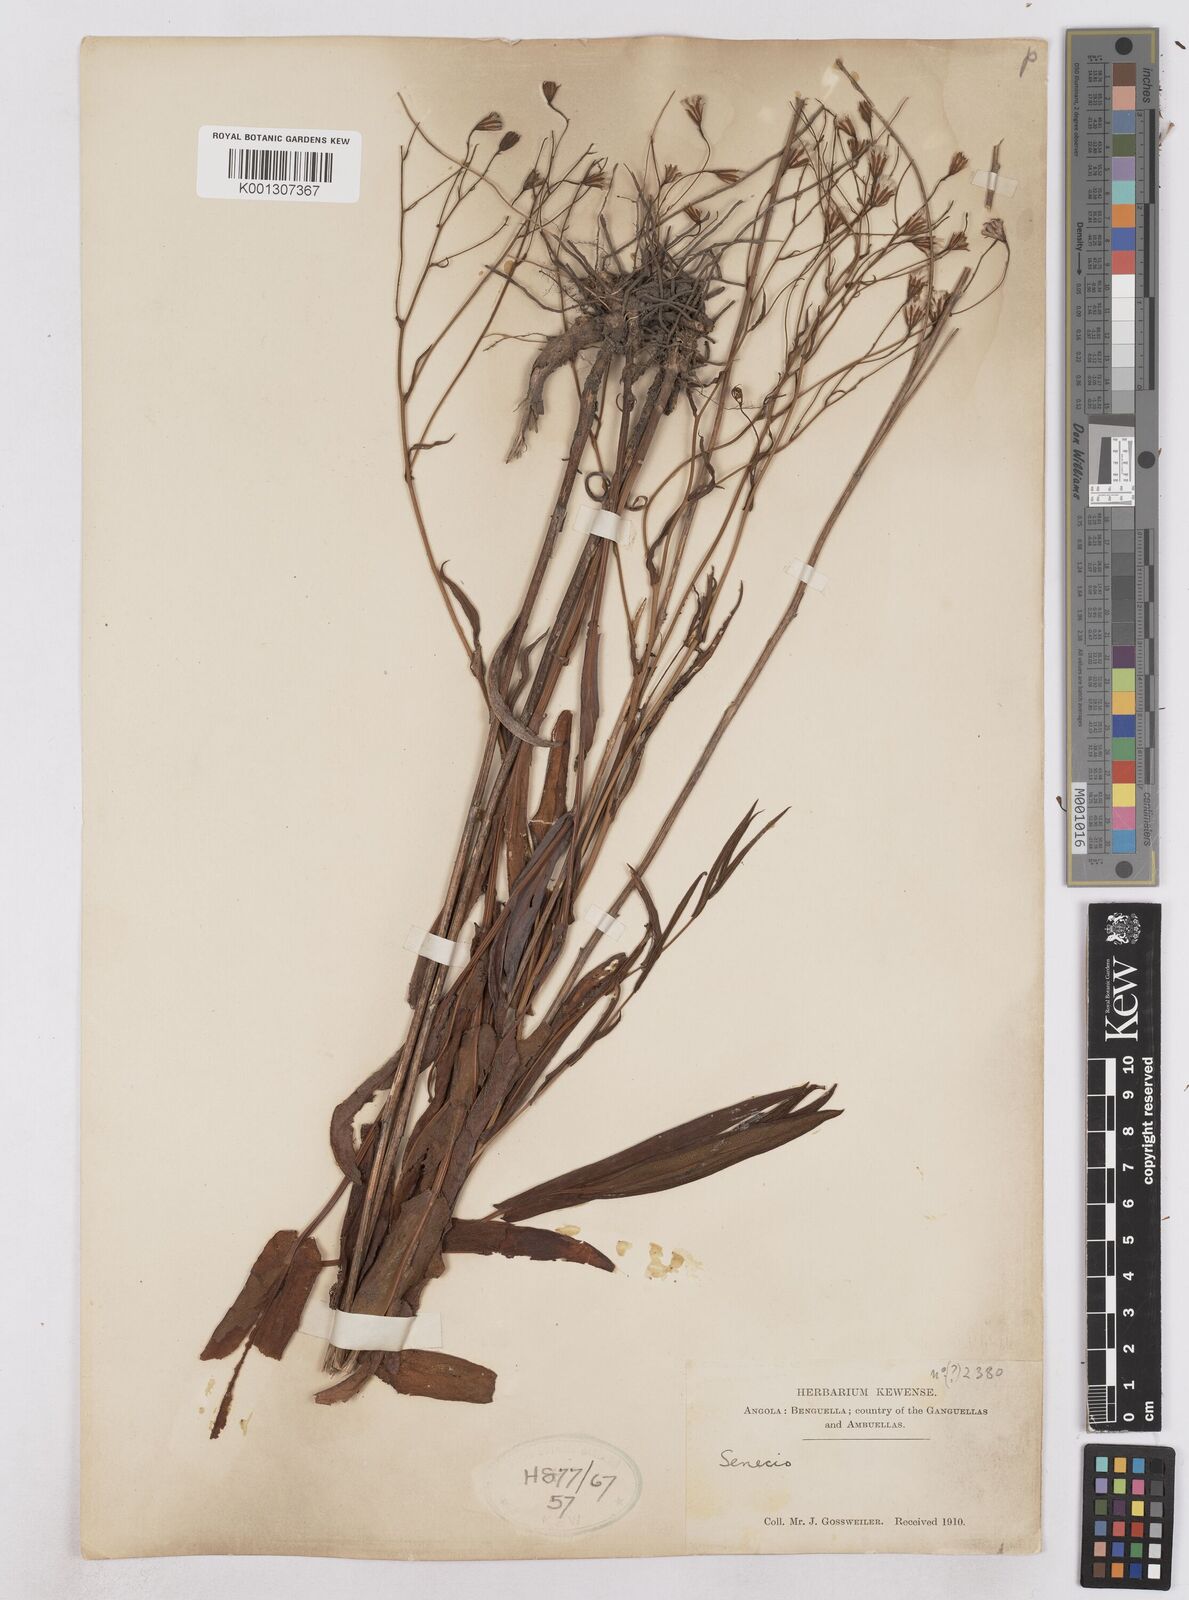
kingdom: Plantae
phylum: Tracheophyta
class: Magnoliopsida
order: Asterales
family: Asteraceae
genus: Senecio
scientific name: Senecio latifolius
